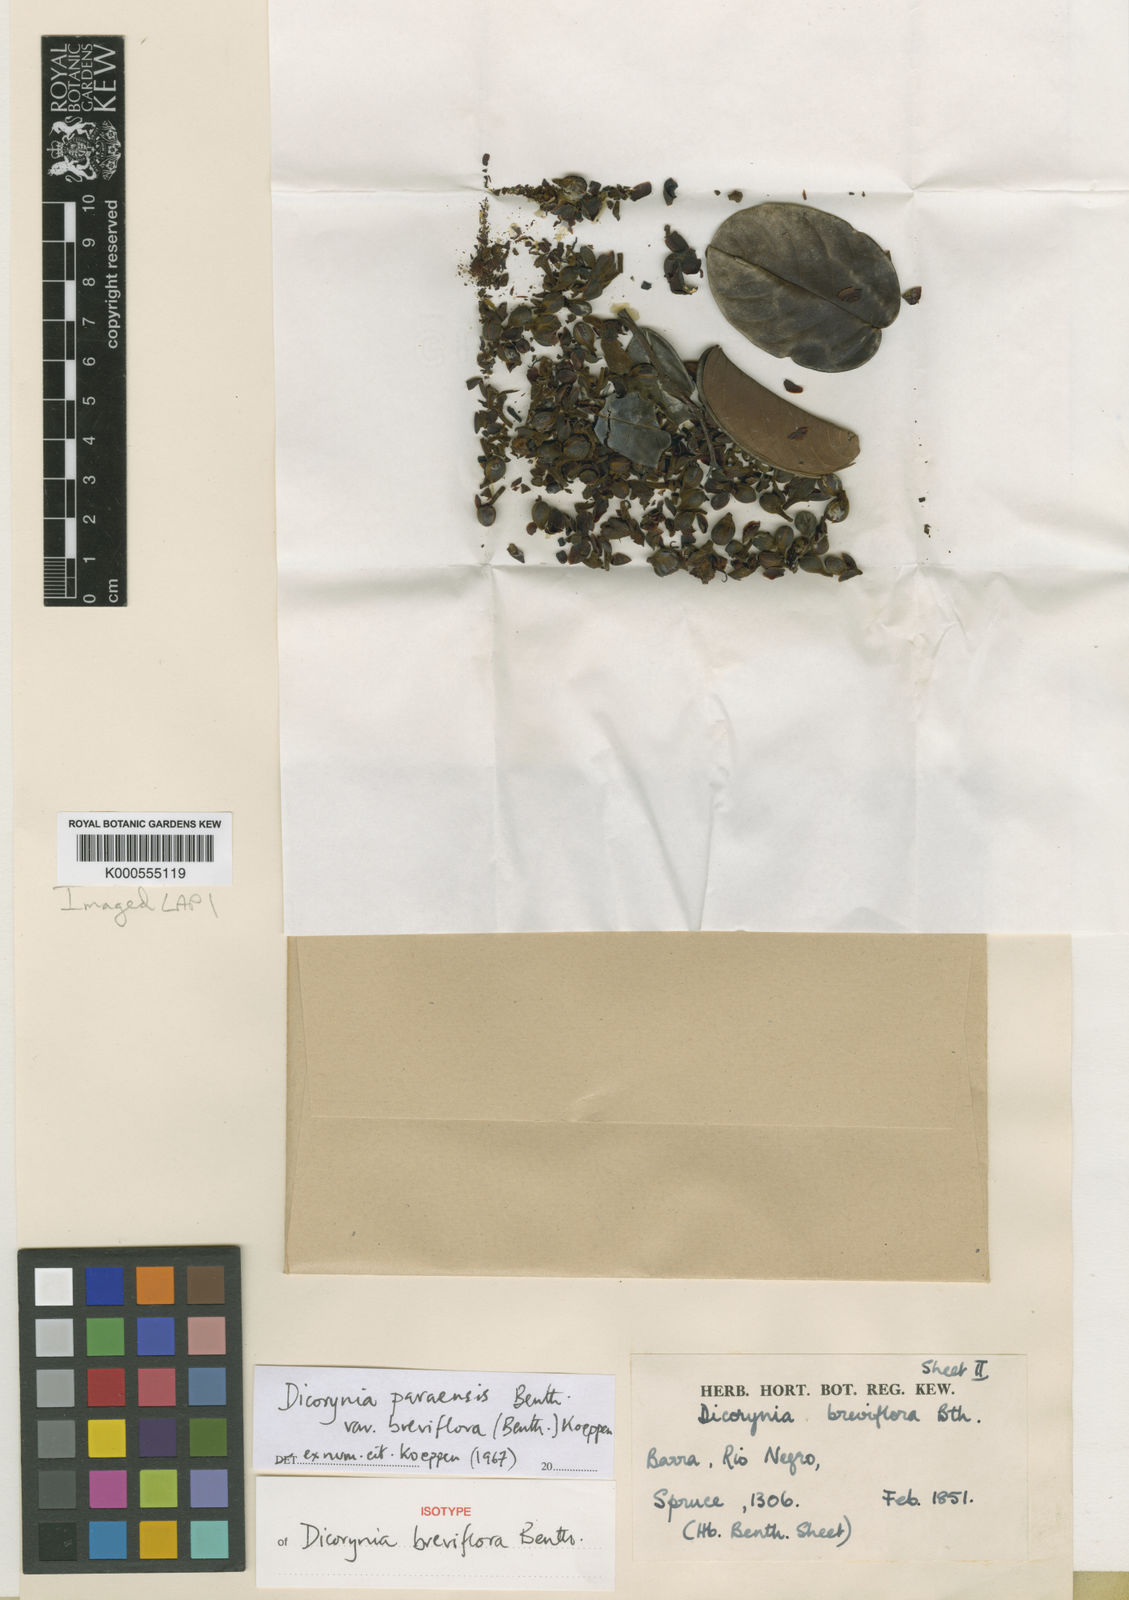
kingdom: Plantae
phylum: Tracheophyta
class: Magnoliopsida
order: Fabales
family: Fabaceae
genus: Dicorynia
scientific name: Dicorynia paraensis
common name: Angelique
